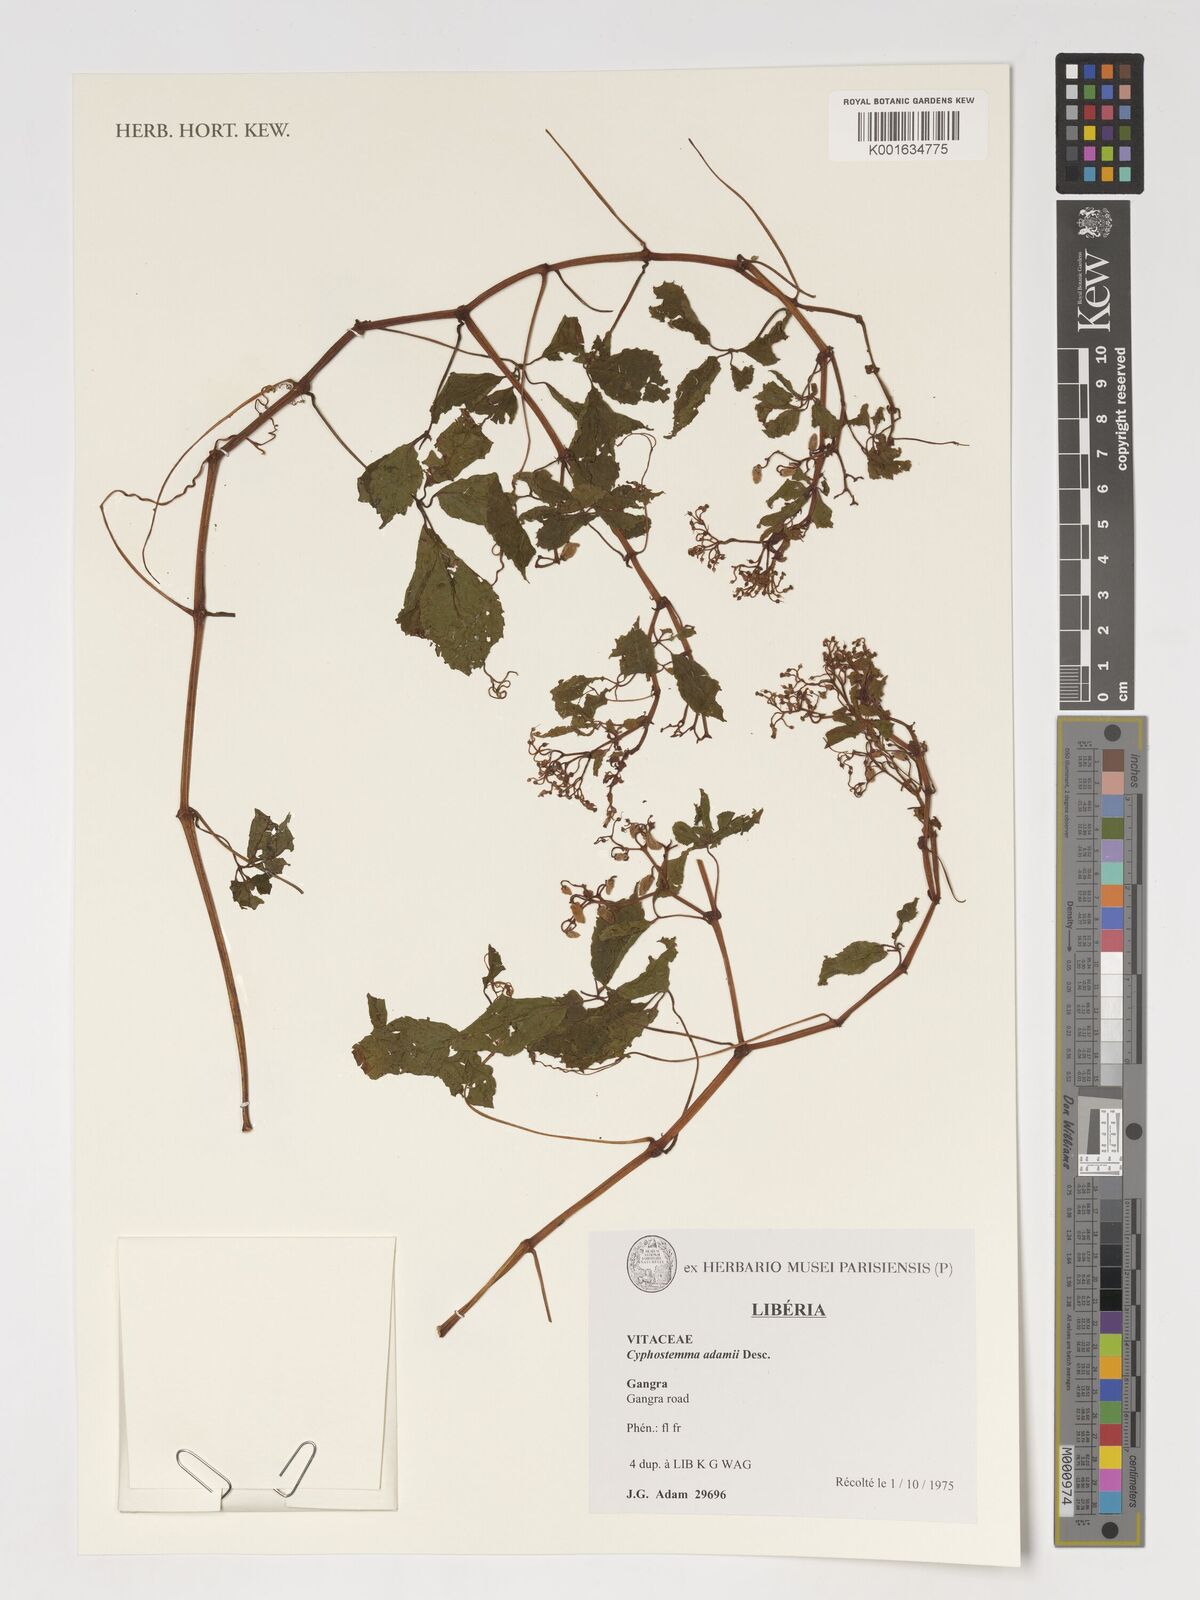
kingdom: Plantae
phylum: Tracheophyta
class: Magnoliopsida
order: Vitales
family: Vitaceae
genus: Cyphostemma
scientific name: Cyphostemma adamii
